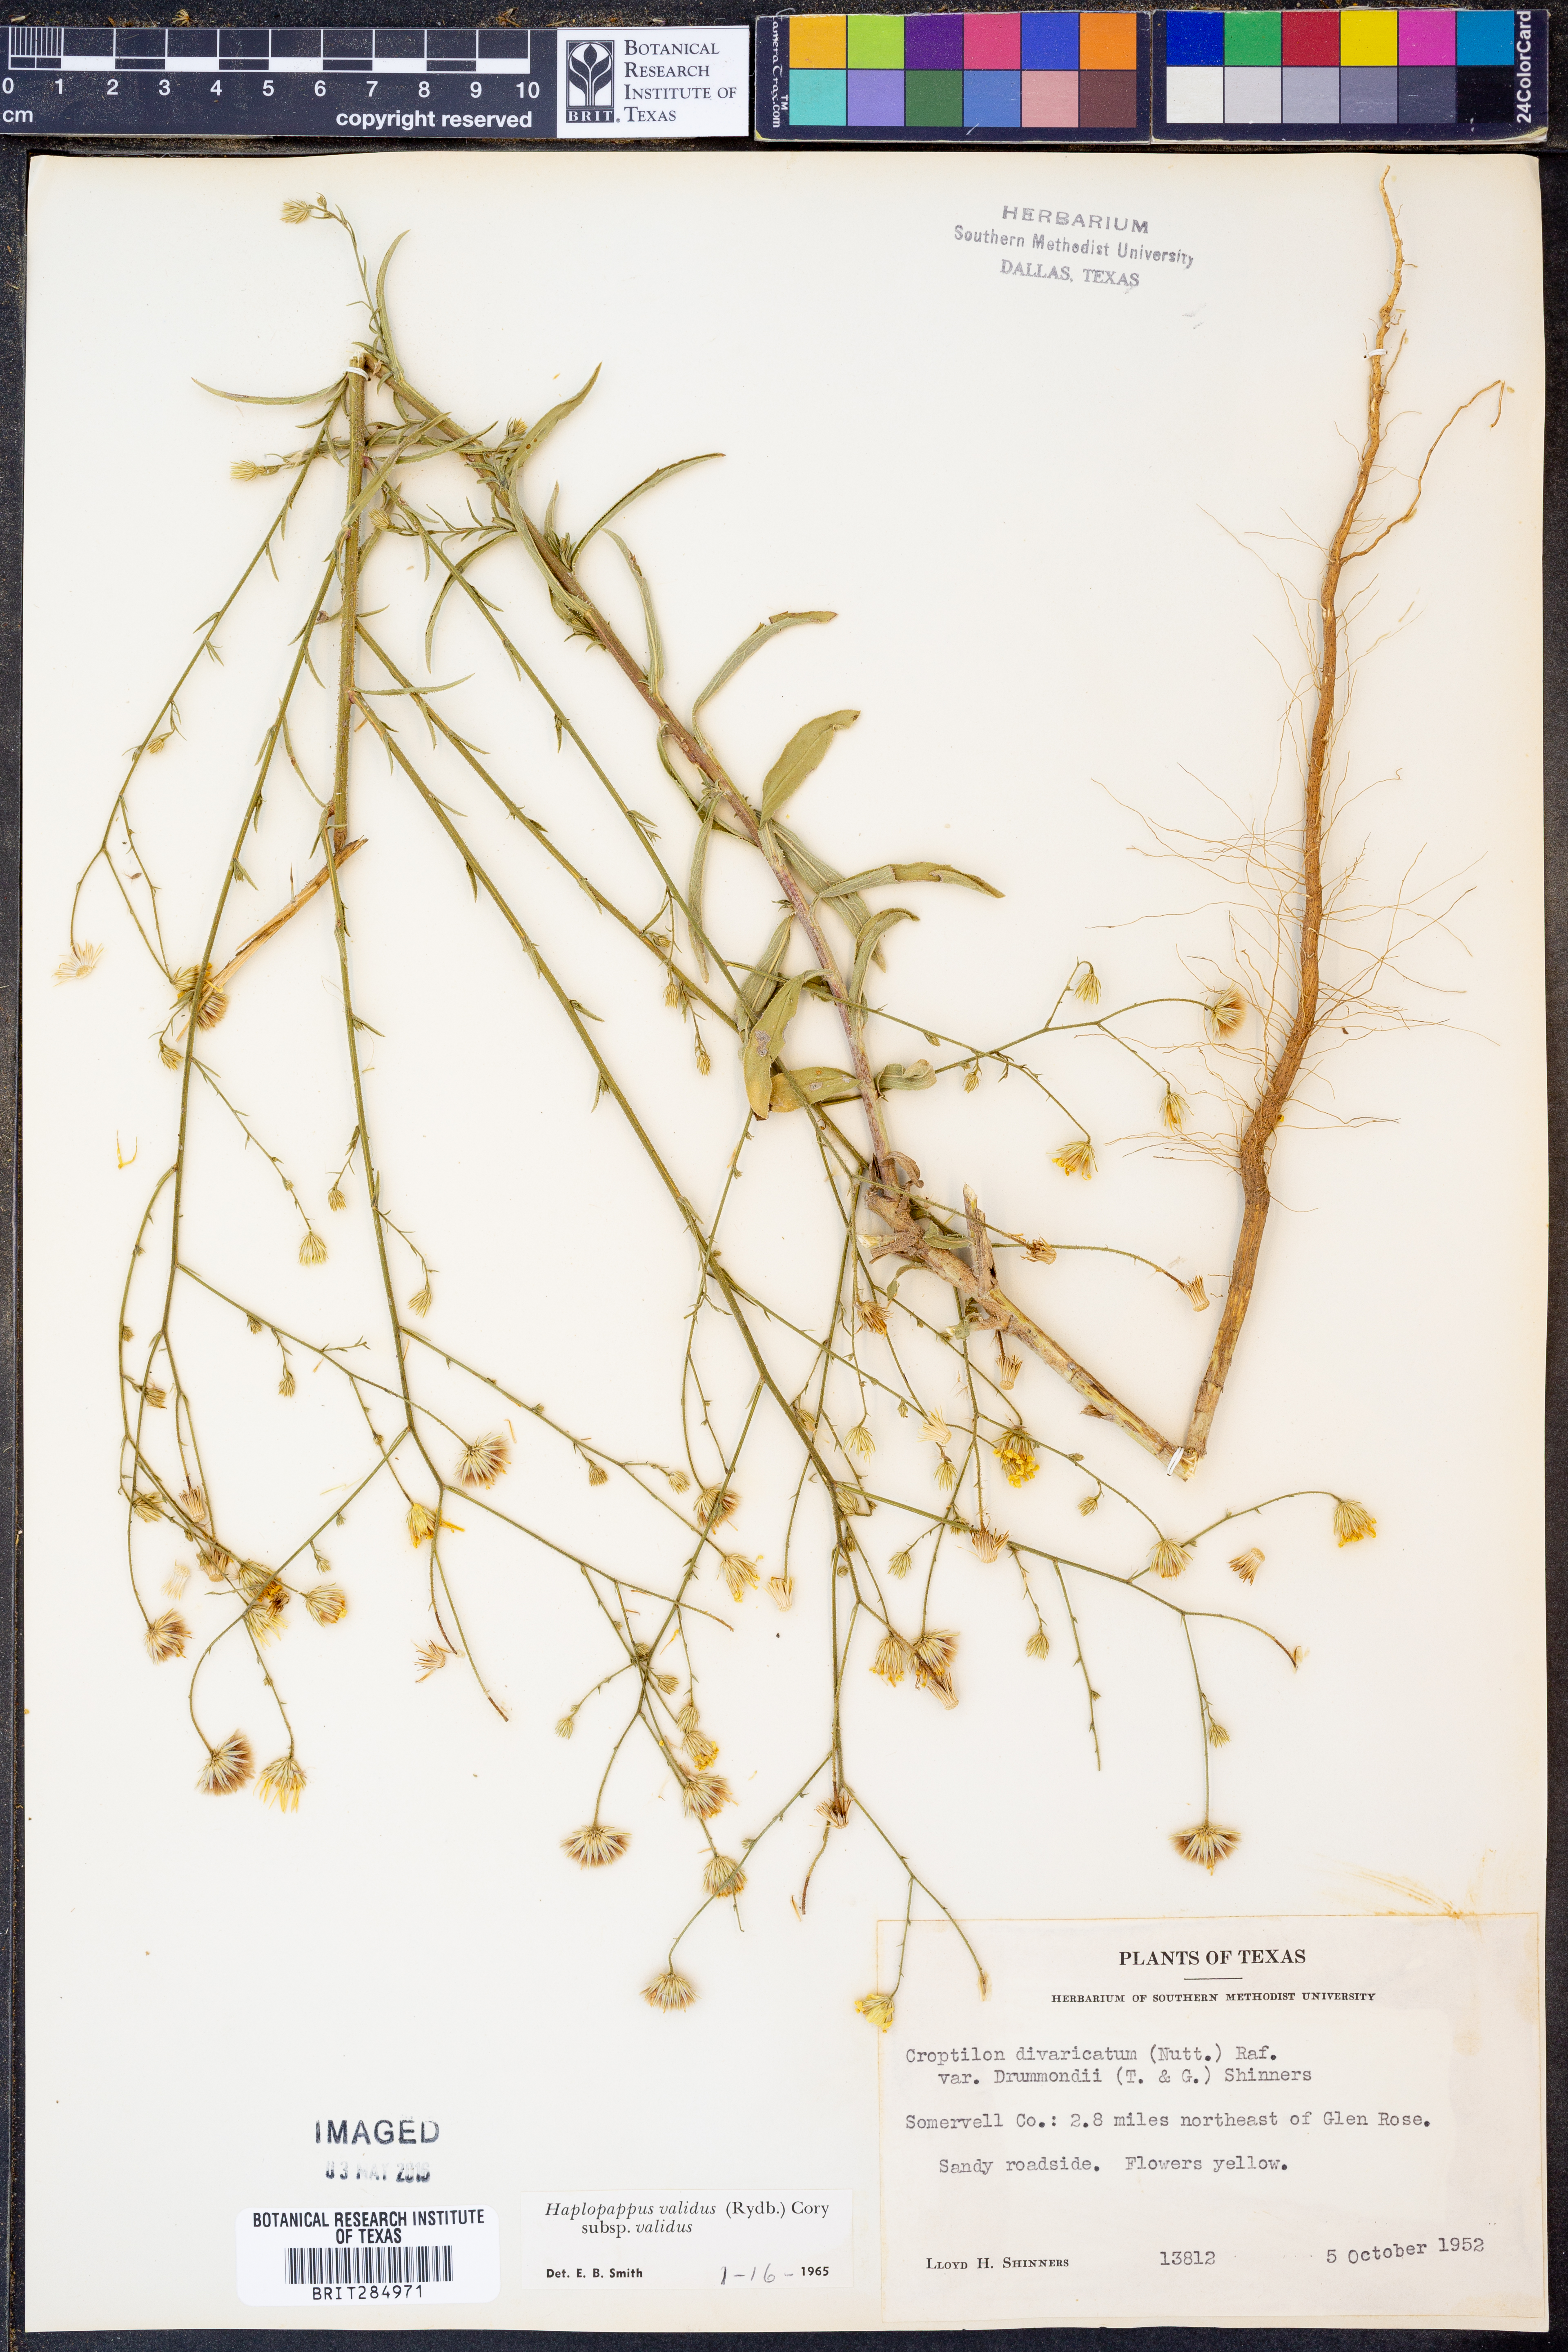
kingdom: Plantae
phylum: Tracheophyta
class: Magnoliopsida
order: Asterales
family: Asteraceae
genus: Croptilon
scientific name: Croptilon hookerianum
